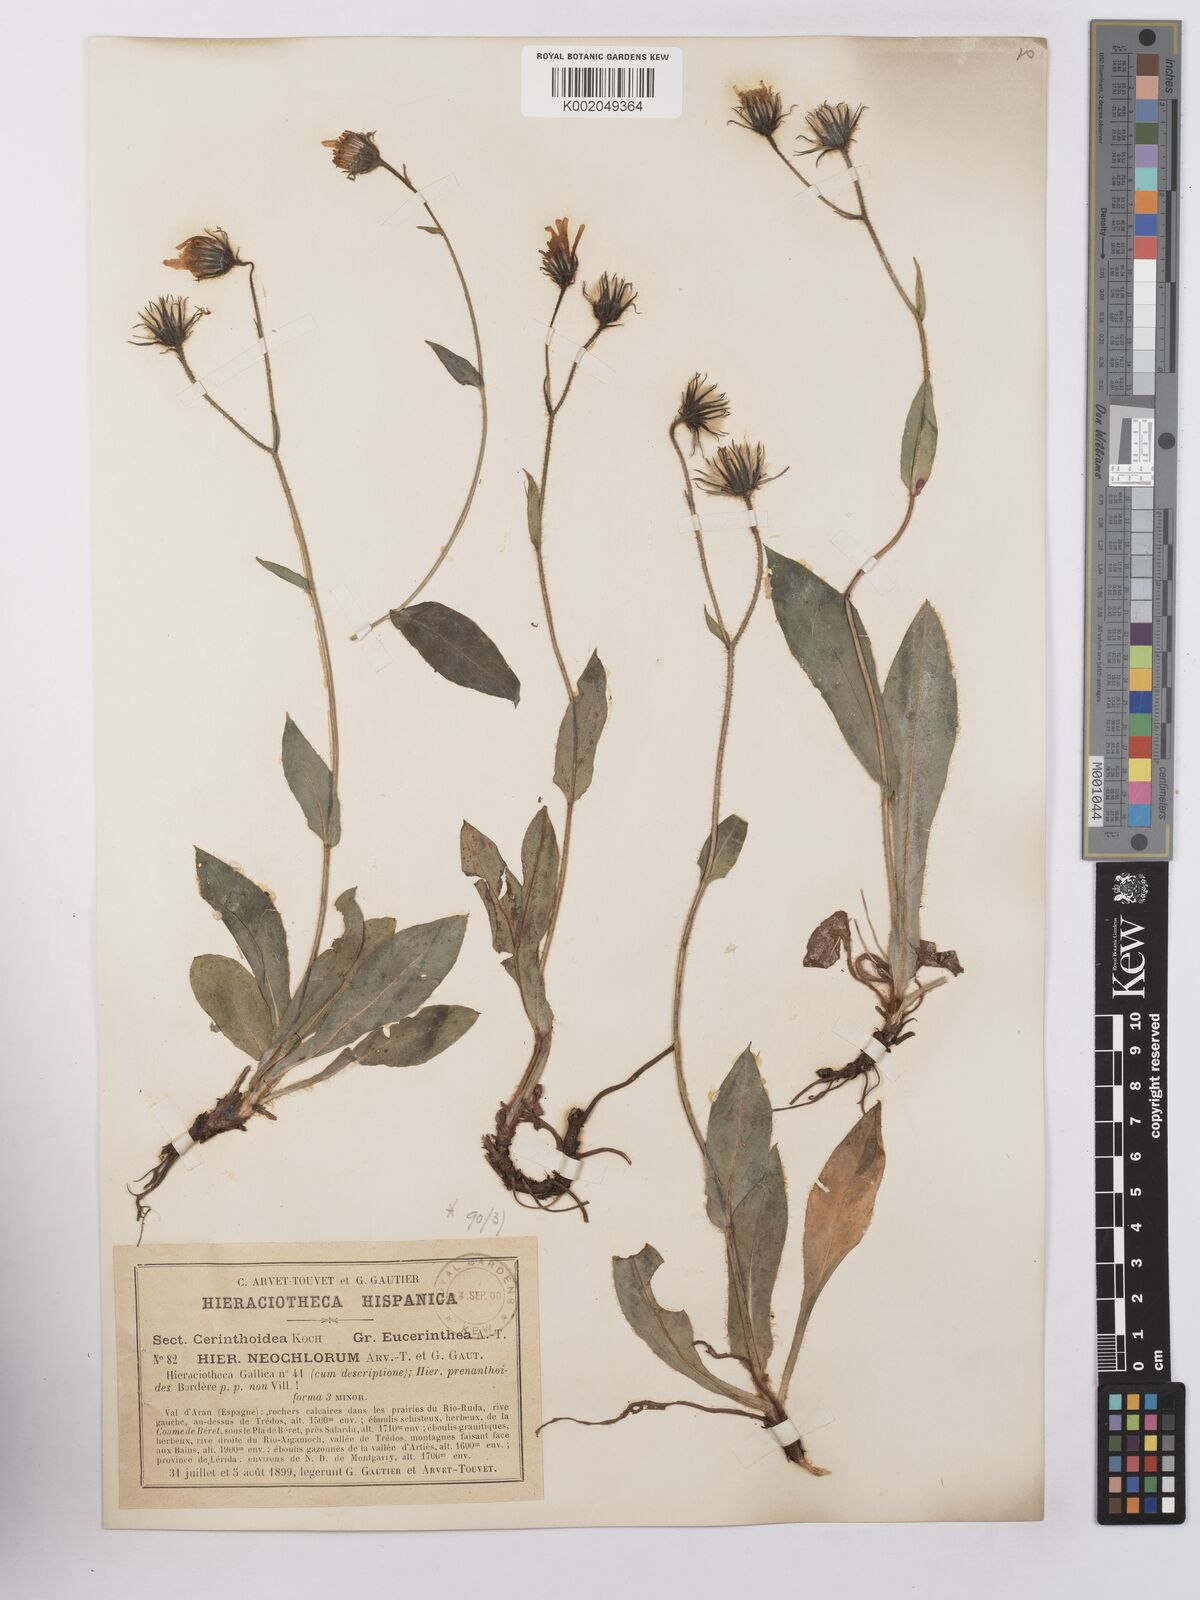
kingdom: Plantae
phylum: Tracheophyta
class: Magnoliopsida
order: Asterales
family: Asteraceae
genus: Hieracium
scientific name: Hieracium cerinthoides
